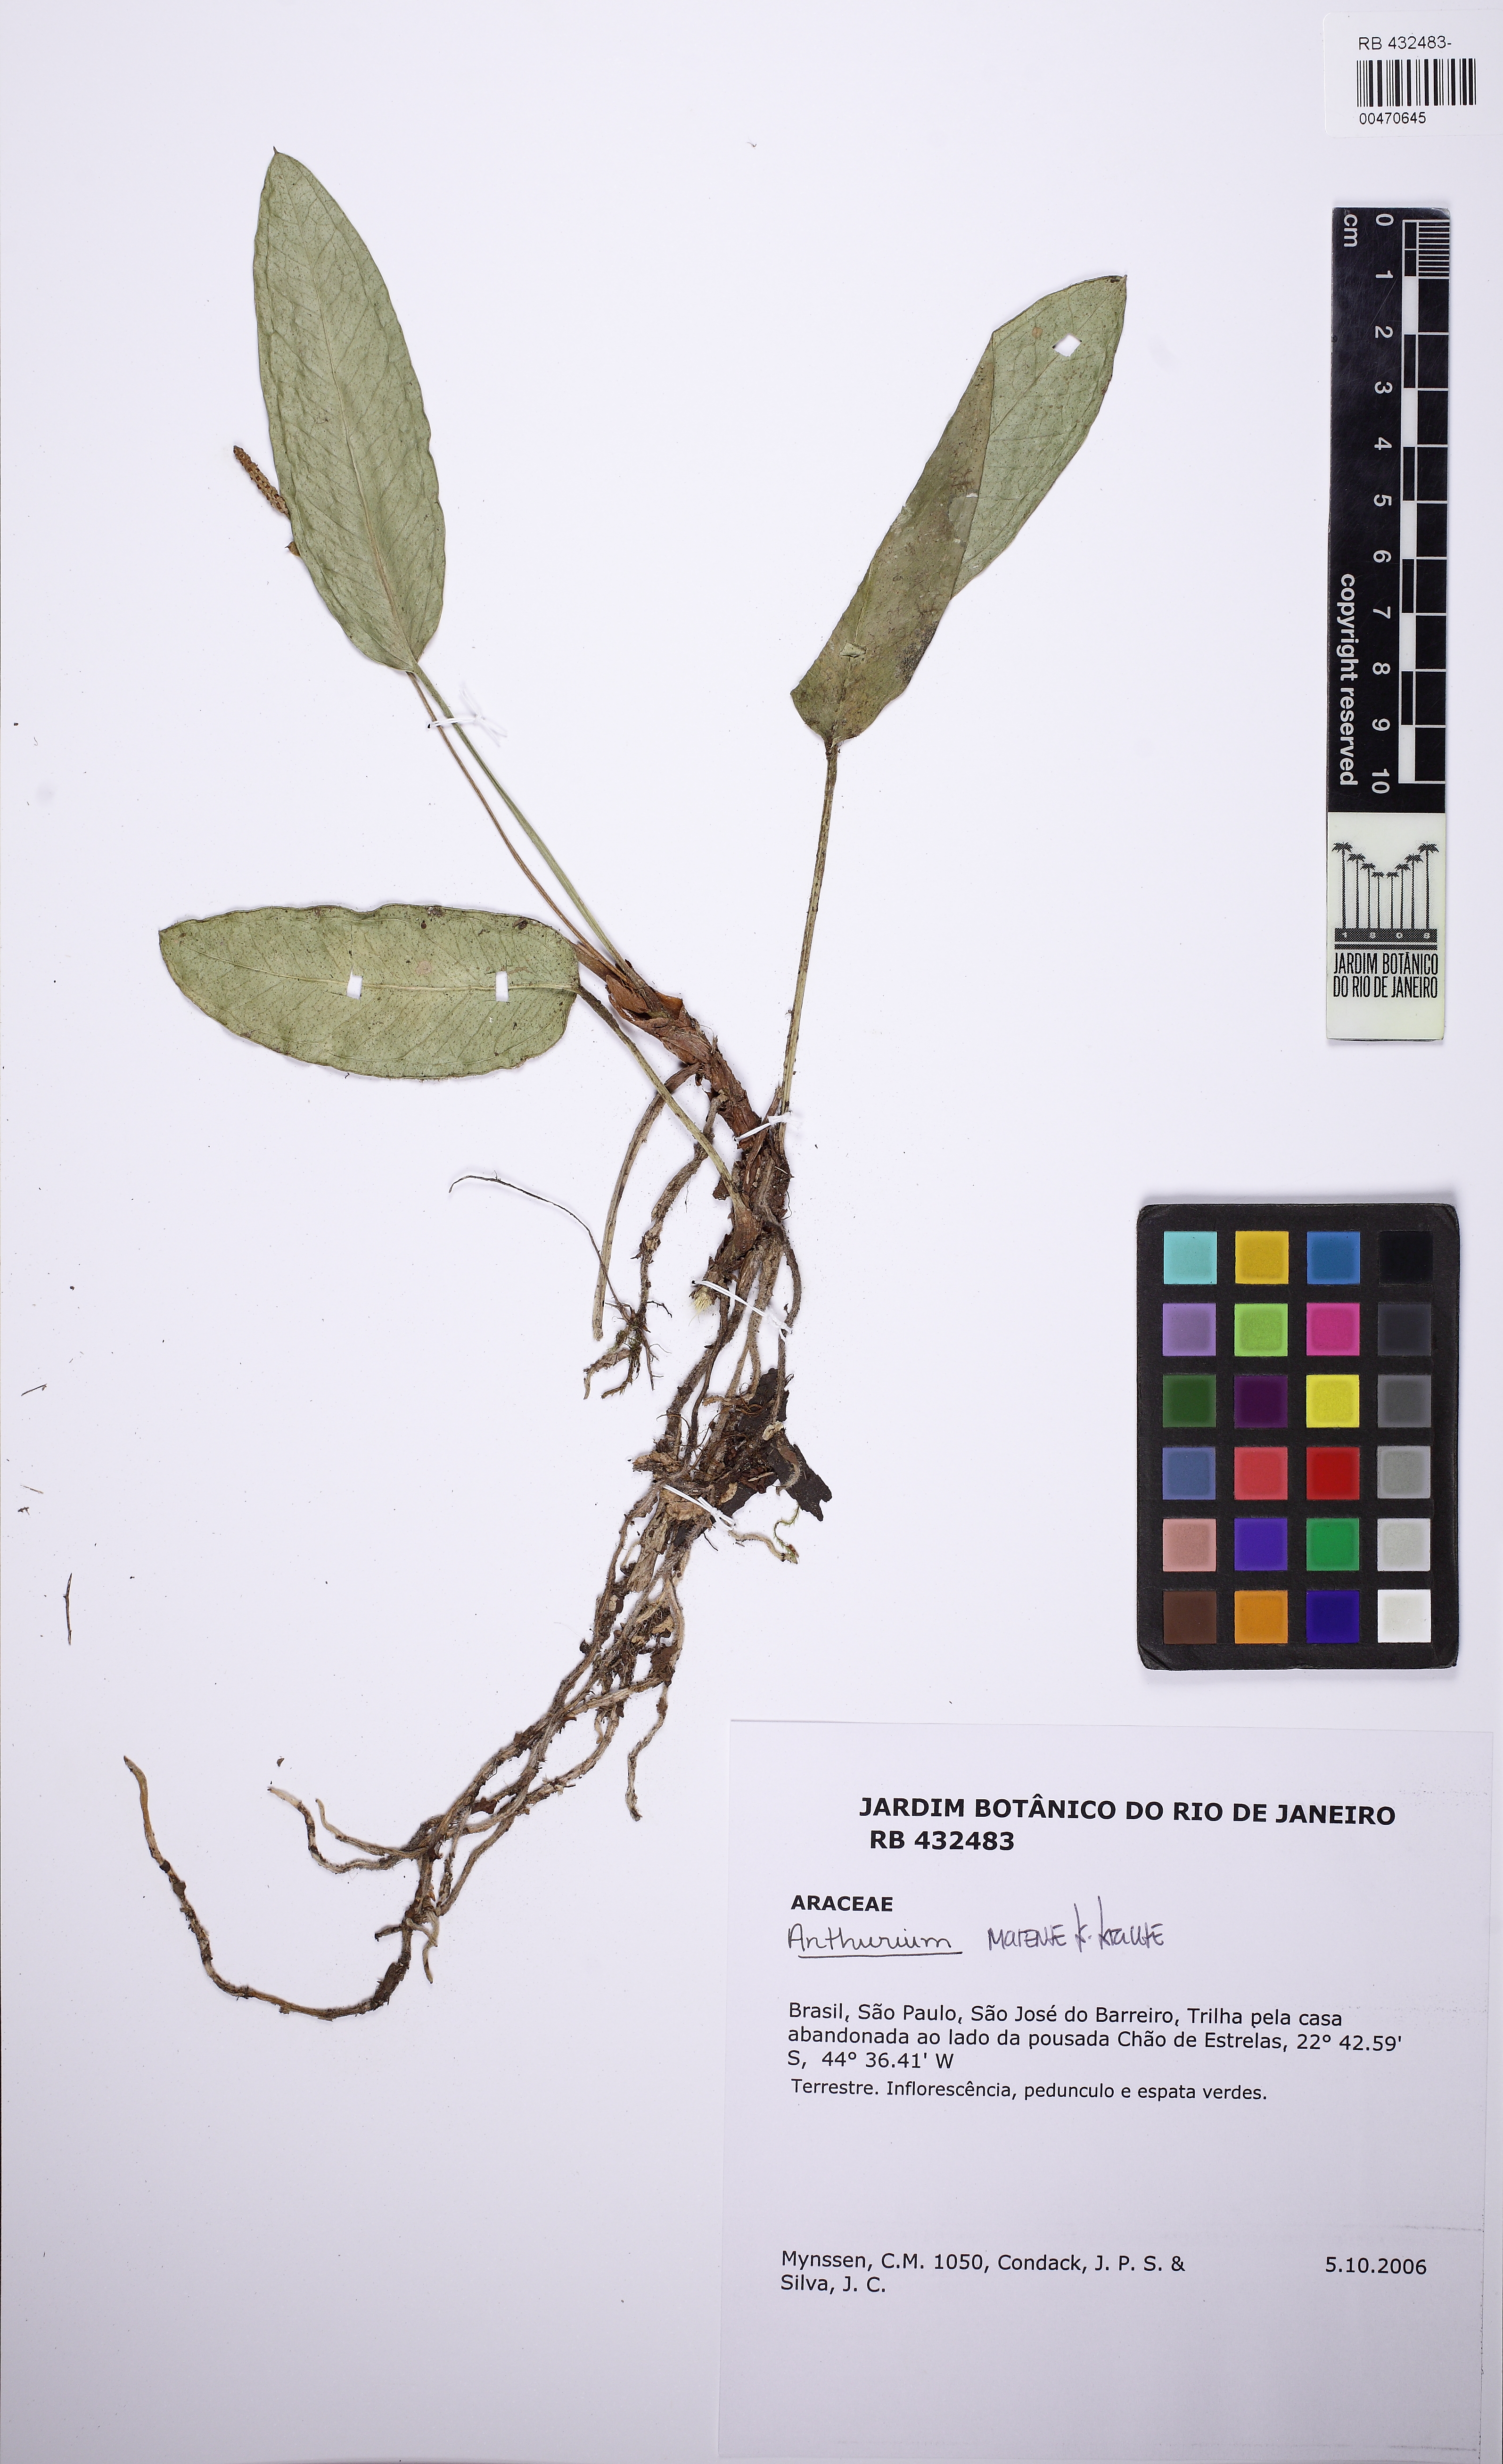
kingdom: Plantae
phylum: Tracheophyta
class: Liliopsida
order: Alismatales
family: Araceae
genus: Anthurium
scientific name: Anthurium marense
